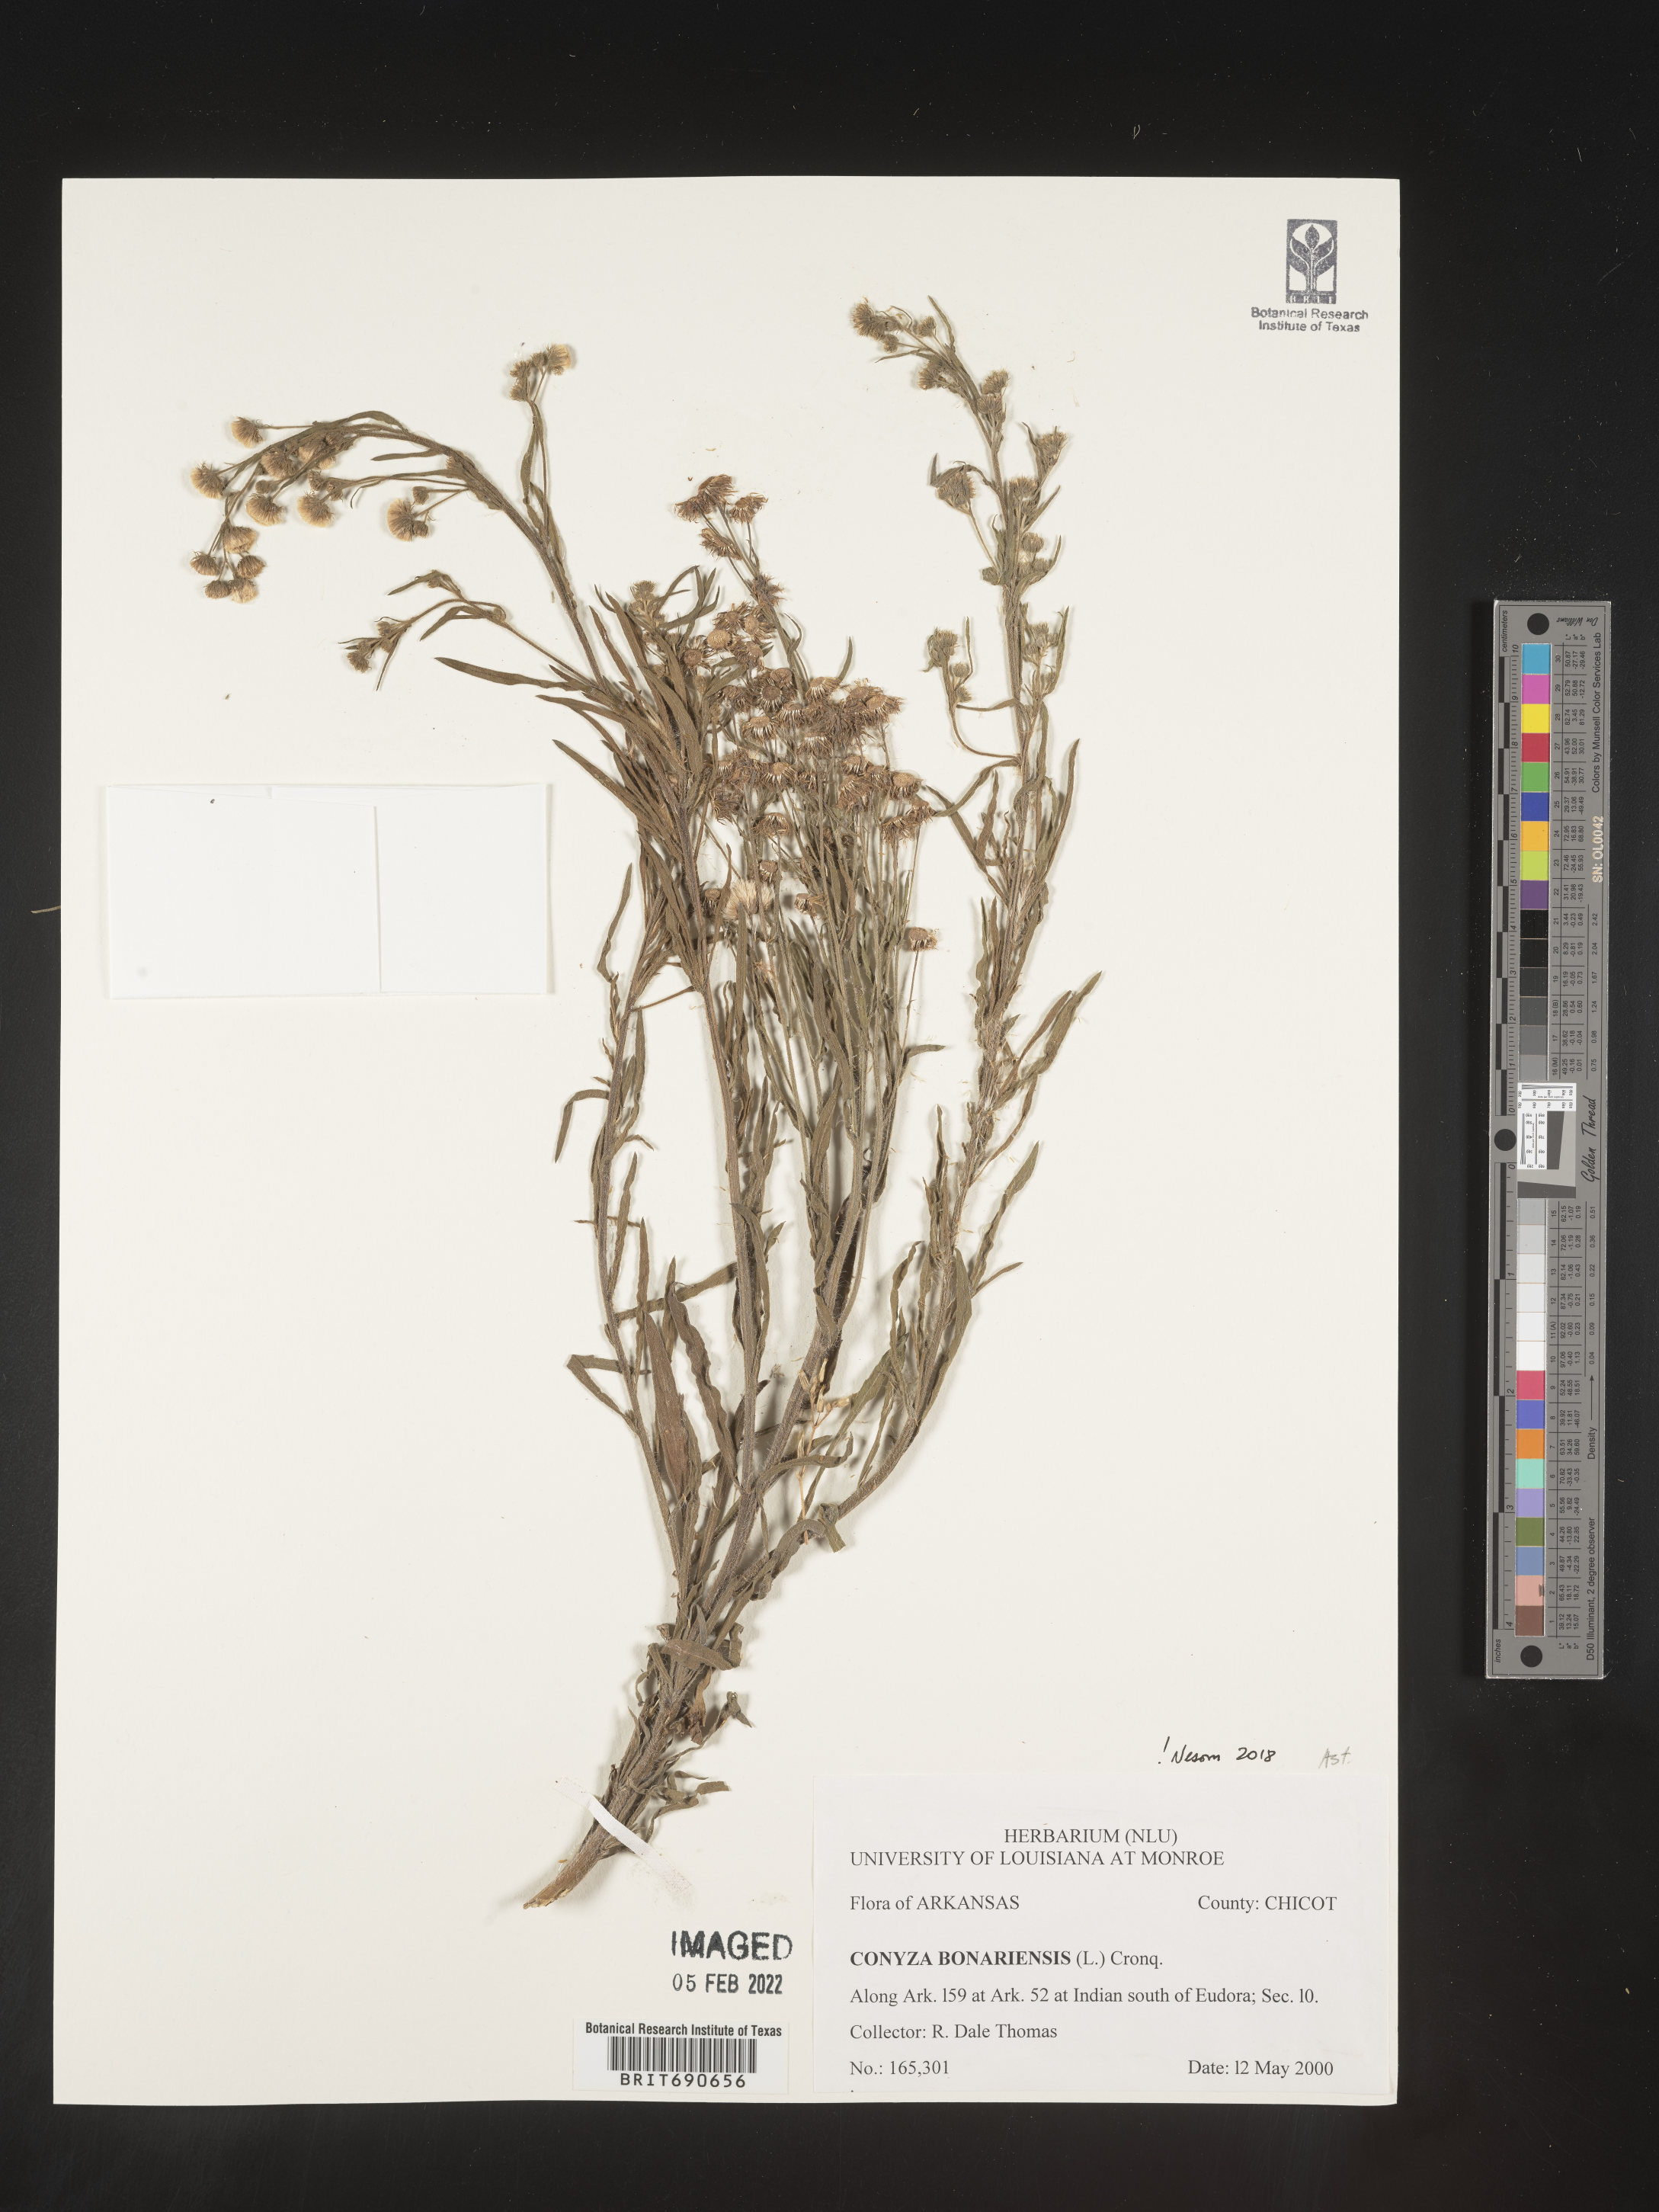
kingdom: Plantae
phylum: Tracheophyta
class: Magnoliopsida
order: Asterales
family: Asteraceae
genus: Erigeron
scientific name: Erigeron bonariensis
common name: Argentine fleabane
